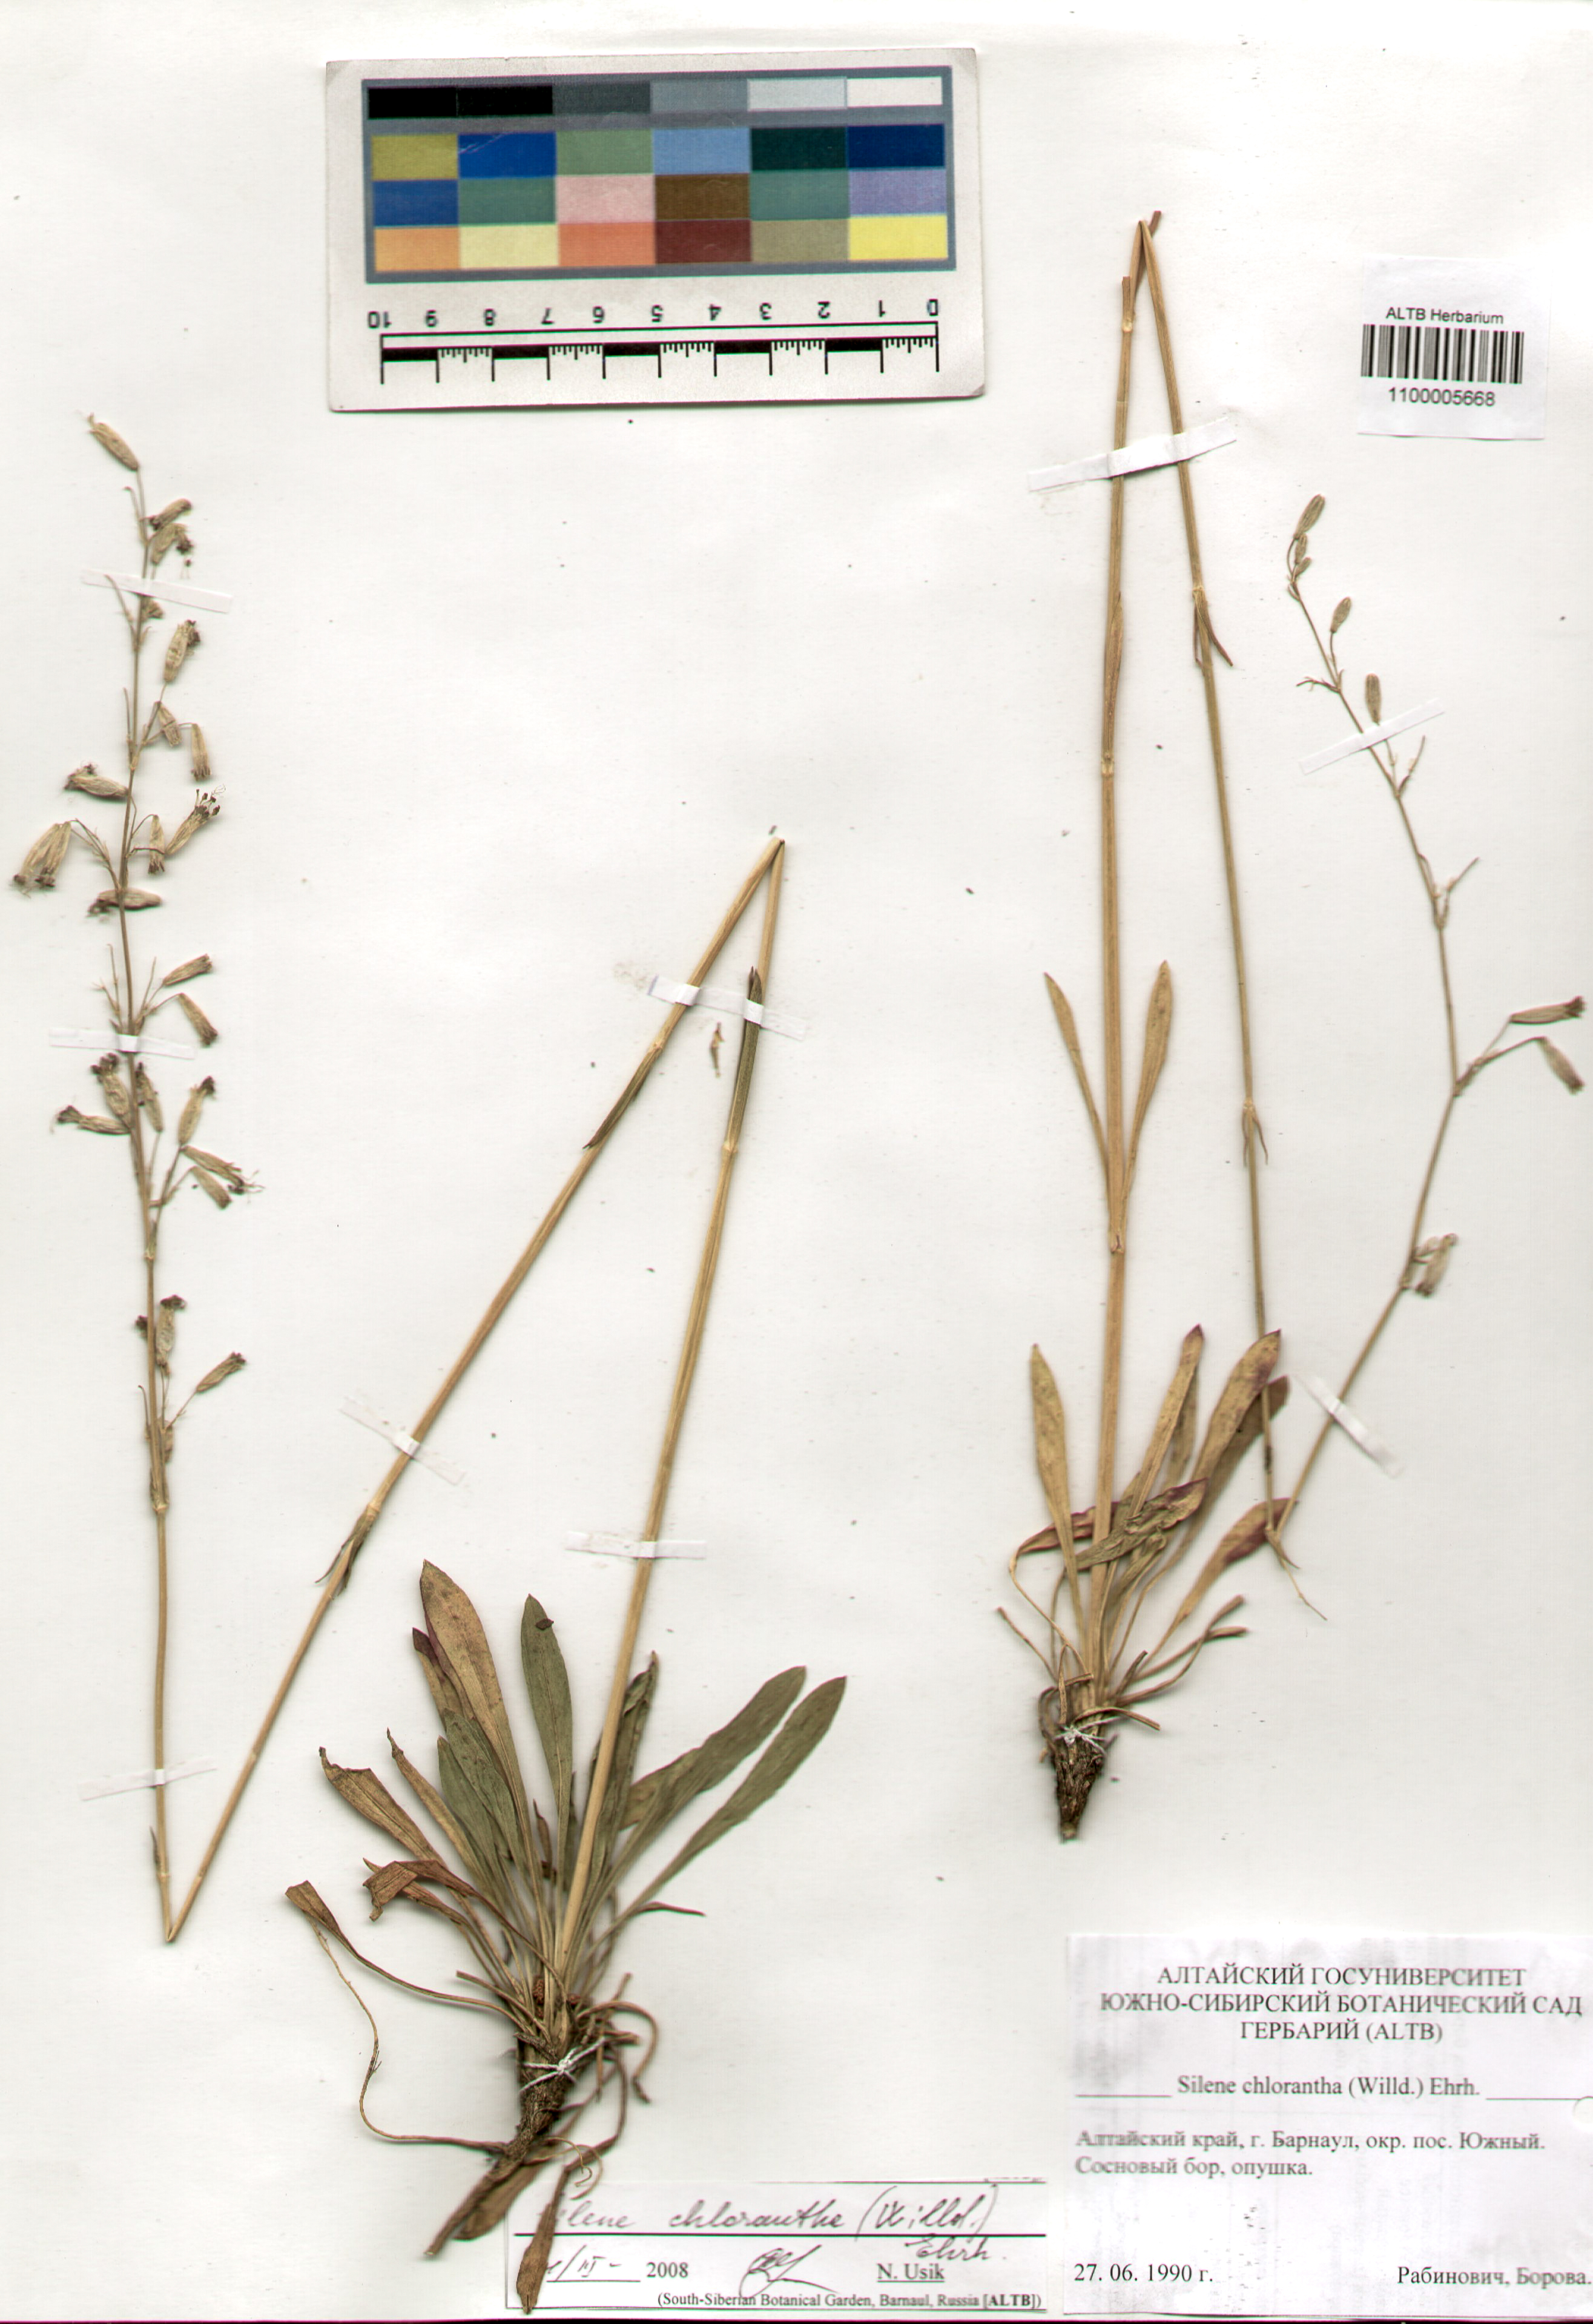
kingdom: Plantae
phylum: Tracheophyta
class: Magnoliopsida
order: Caryophyllales
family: Caryophyllaceae
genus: Silene
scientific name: Silene chlorantha
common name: Yellowgreen catchfly
